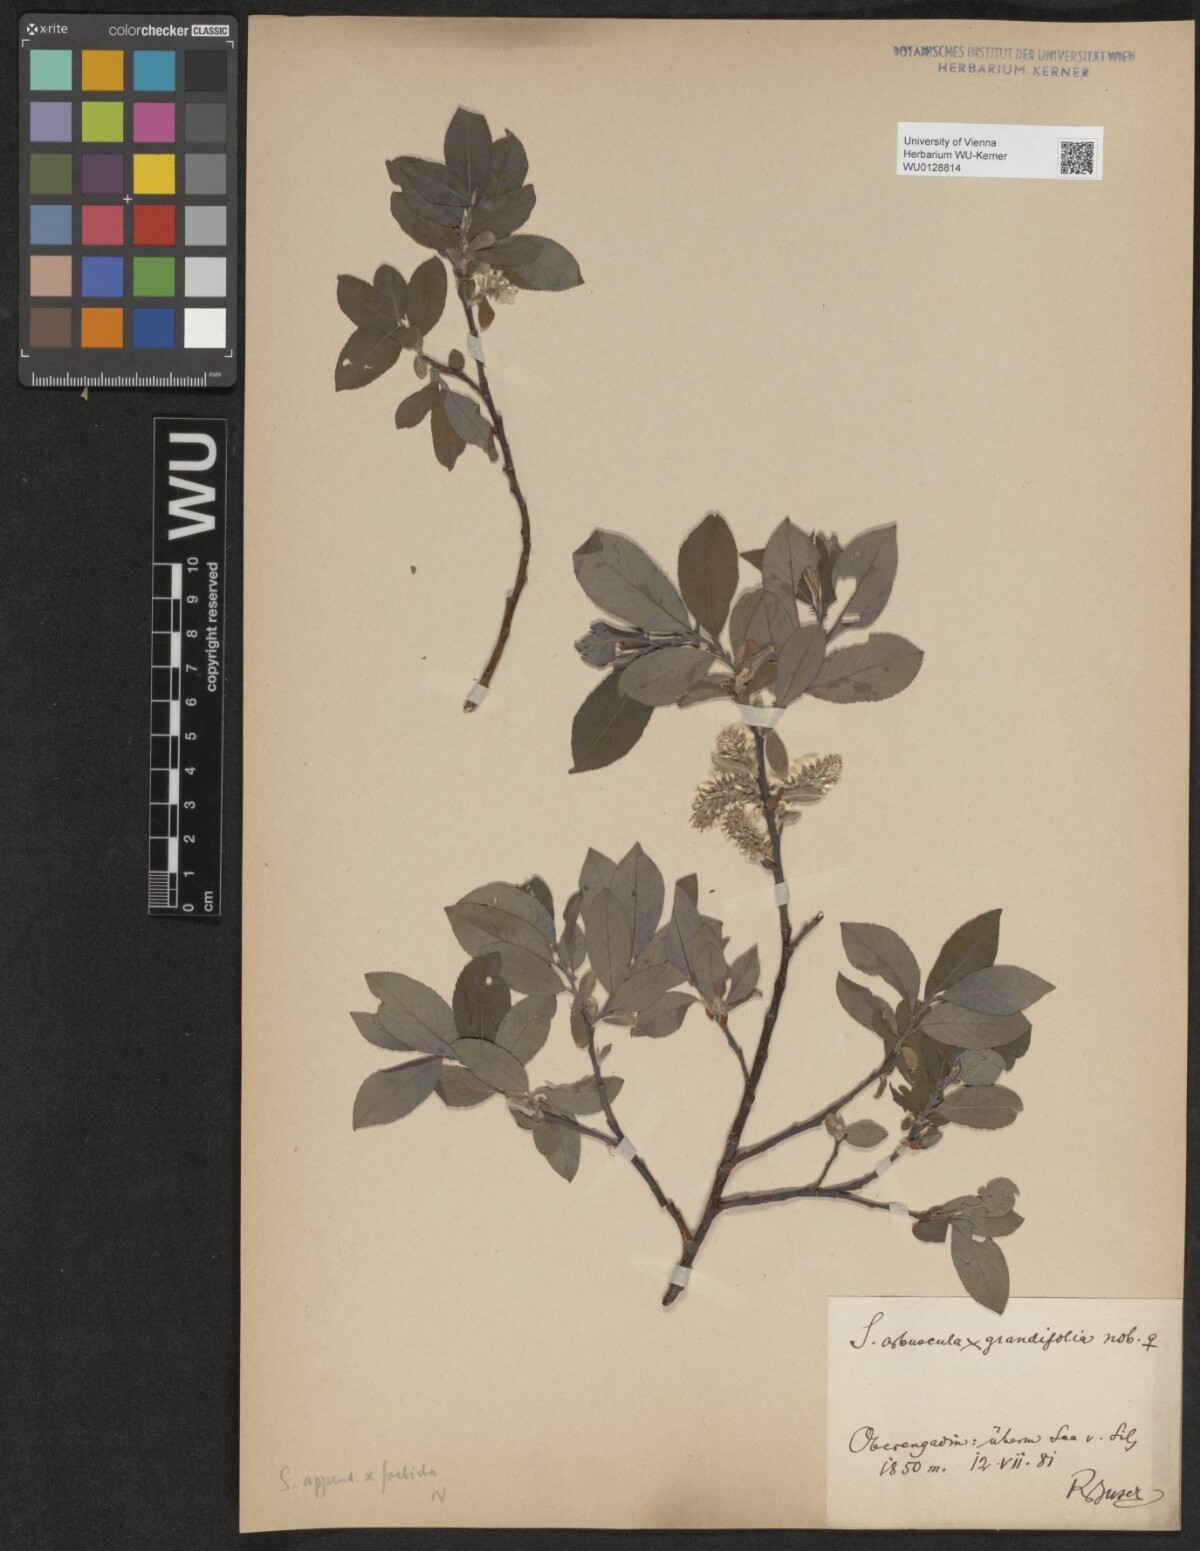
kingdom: Plantae
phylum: Tracheophyta
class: Magnoliopsida
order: Malpighiales
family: Salicaceae
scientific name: Salicaceae
